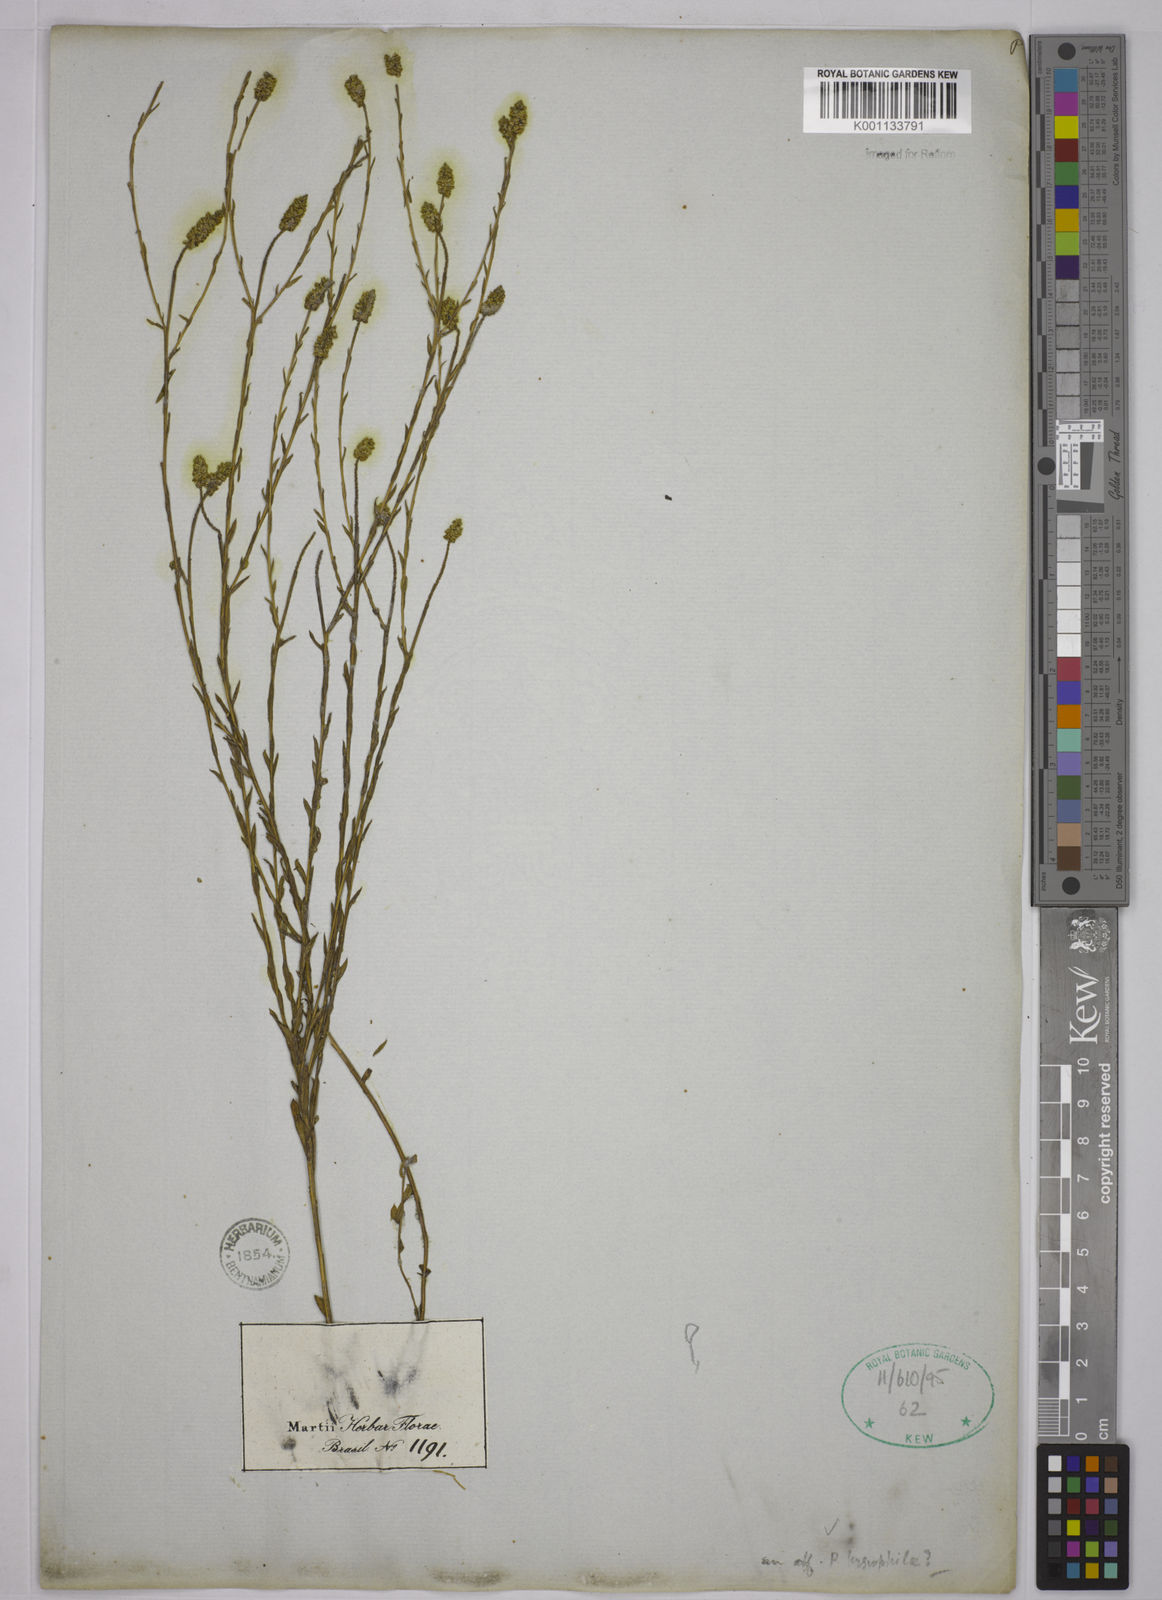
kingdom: Plantae
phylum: Tracheophyta
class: Magnoliopsida
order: Fabales
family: Polygalaceae
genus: Polygala
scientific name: Polygala carphoides
